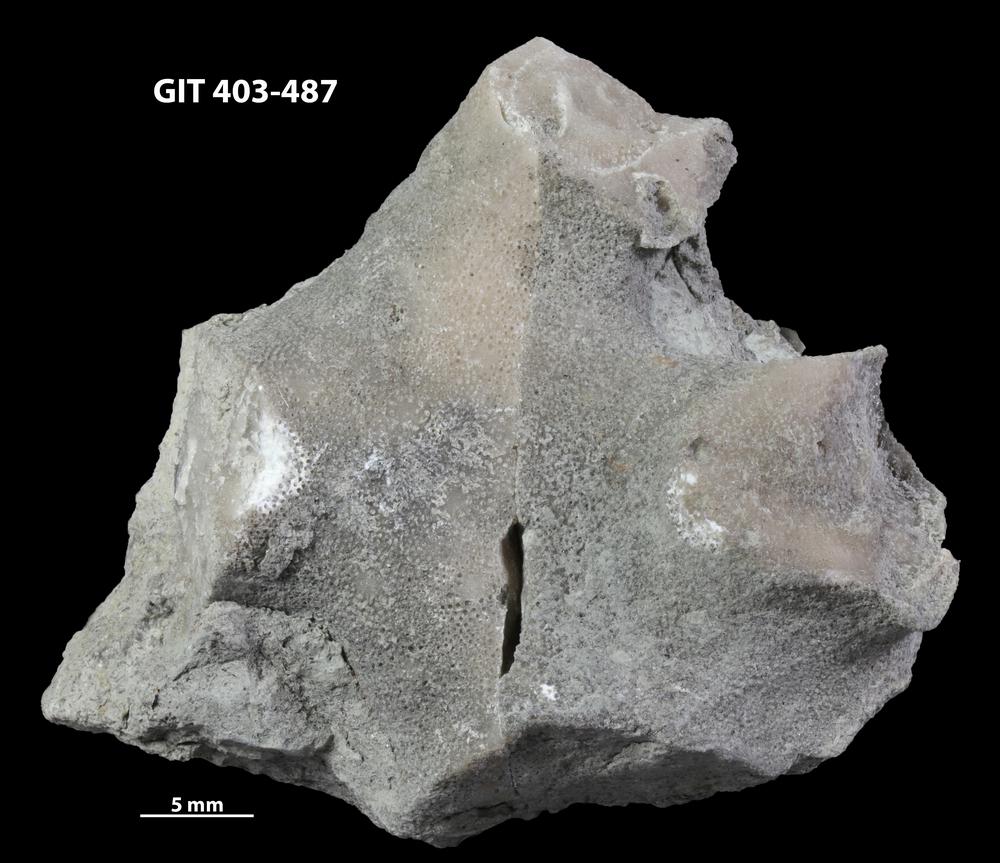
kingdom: Animalia
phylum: Bryozoa
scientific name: Bryozoa
